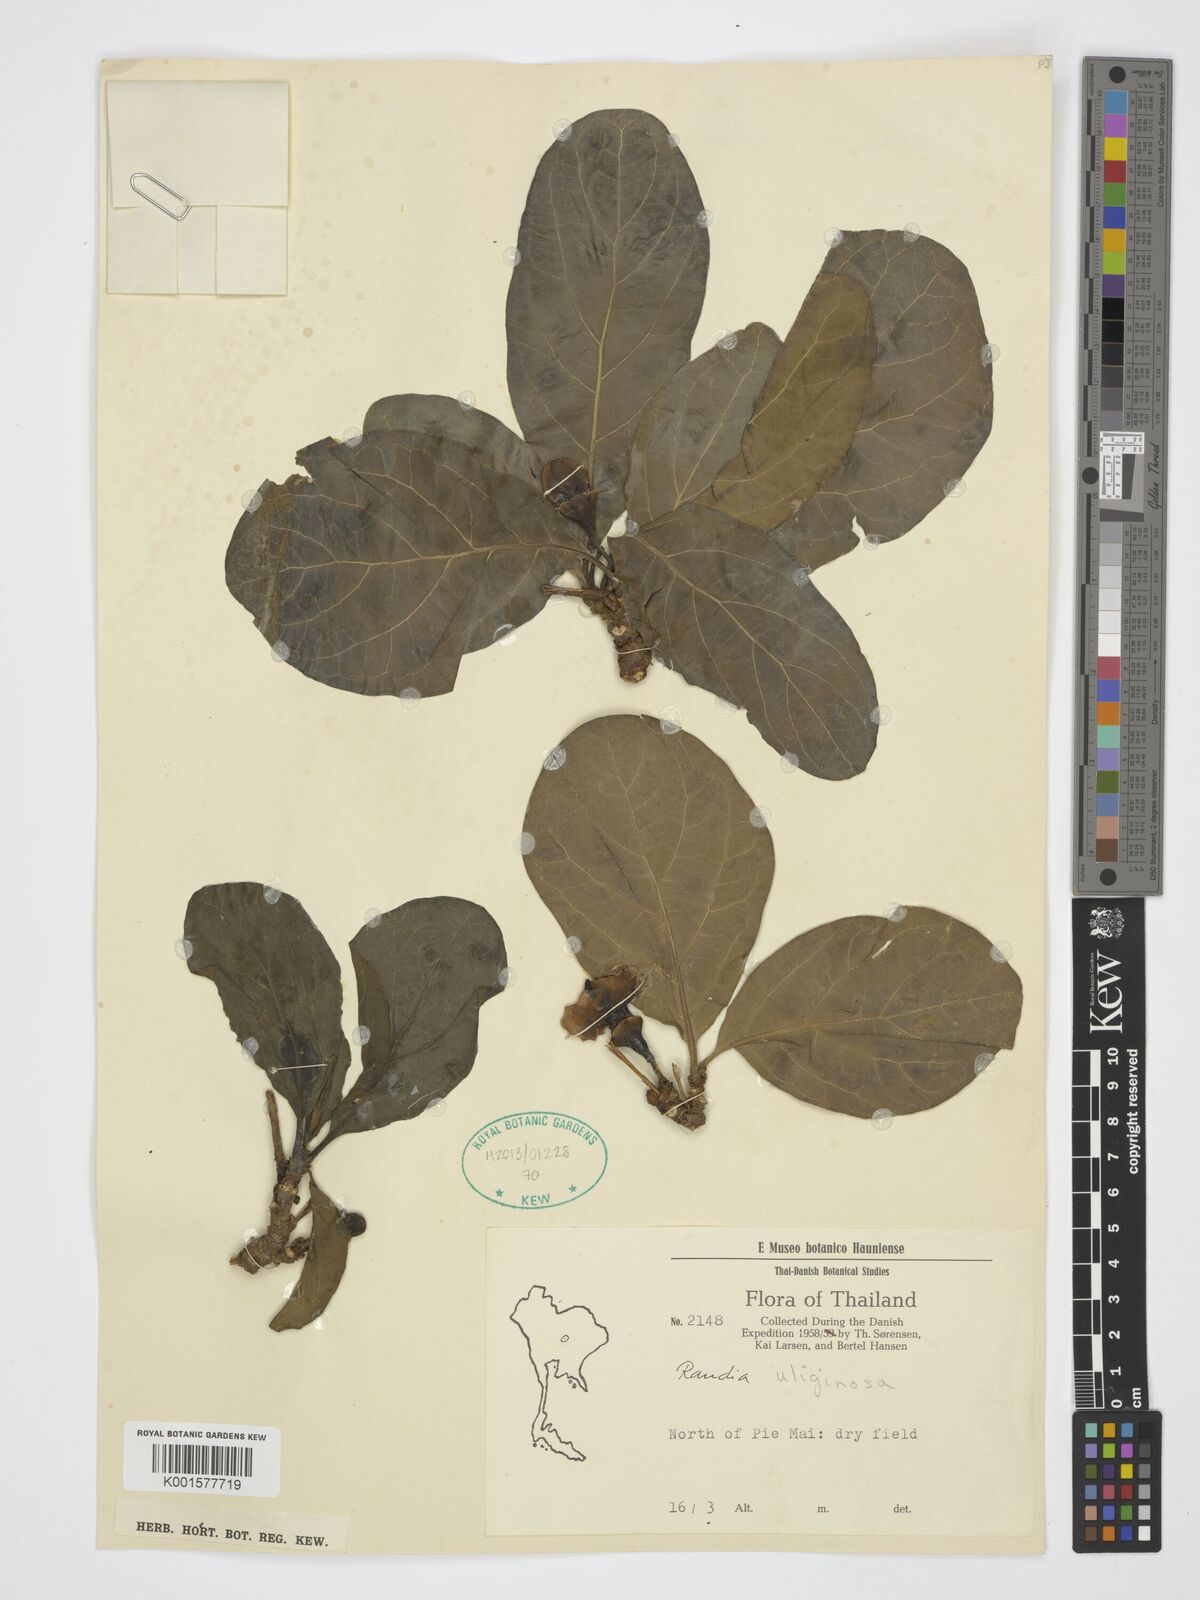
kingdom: Plantae
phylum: Tracheophyta
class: Magnoliopsida
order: Gentianales
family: Rubiaceae
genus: Tamilnadia
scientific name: Tamilnadia uliginosa
